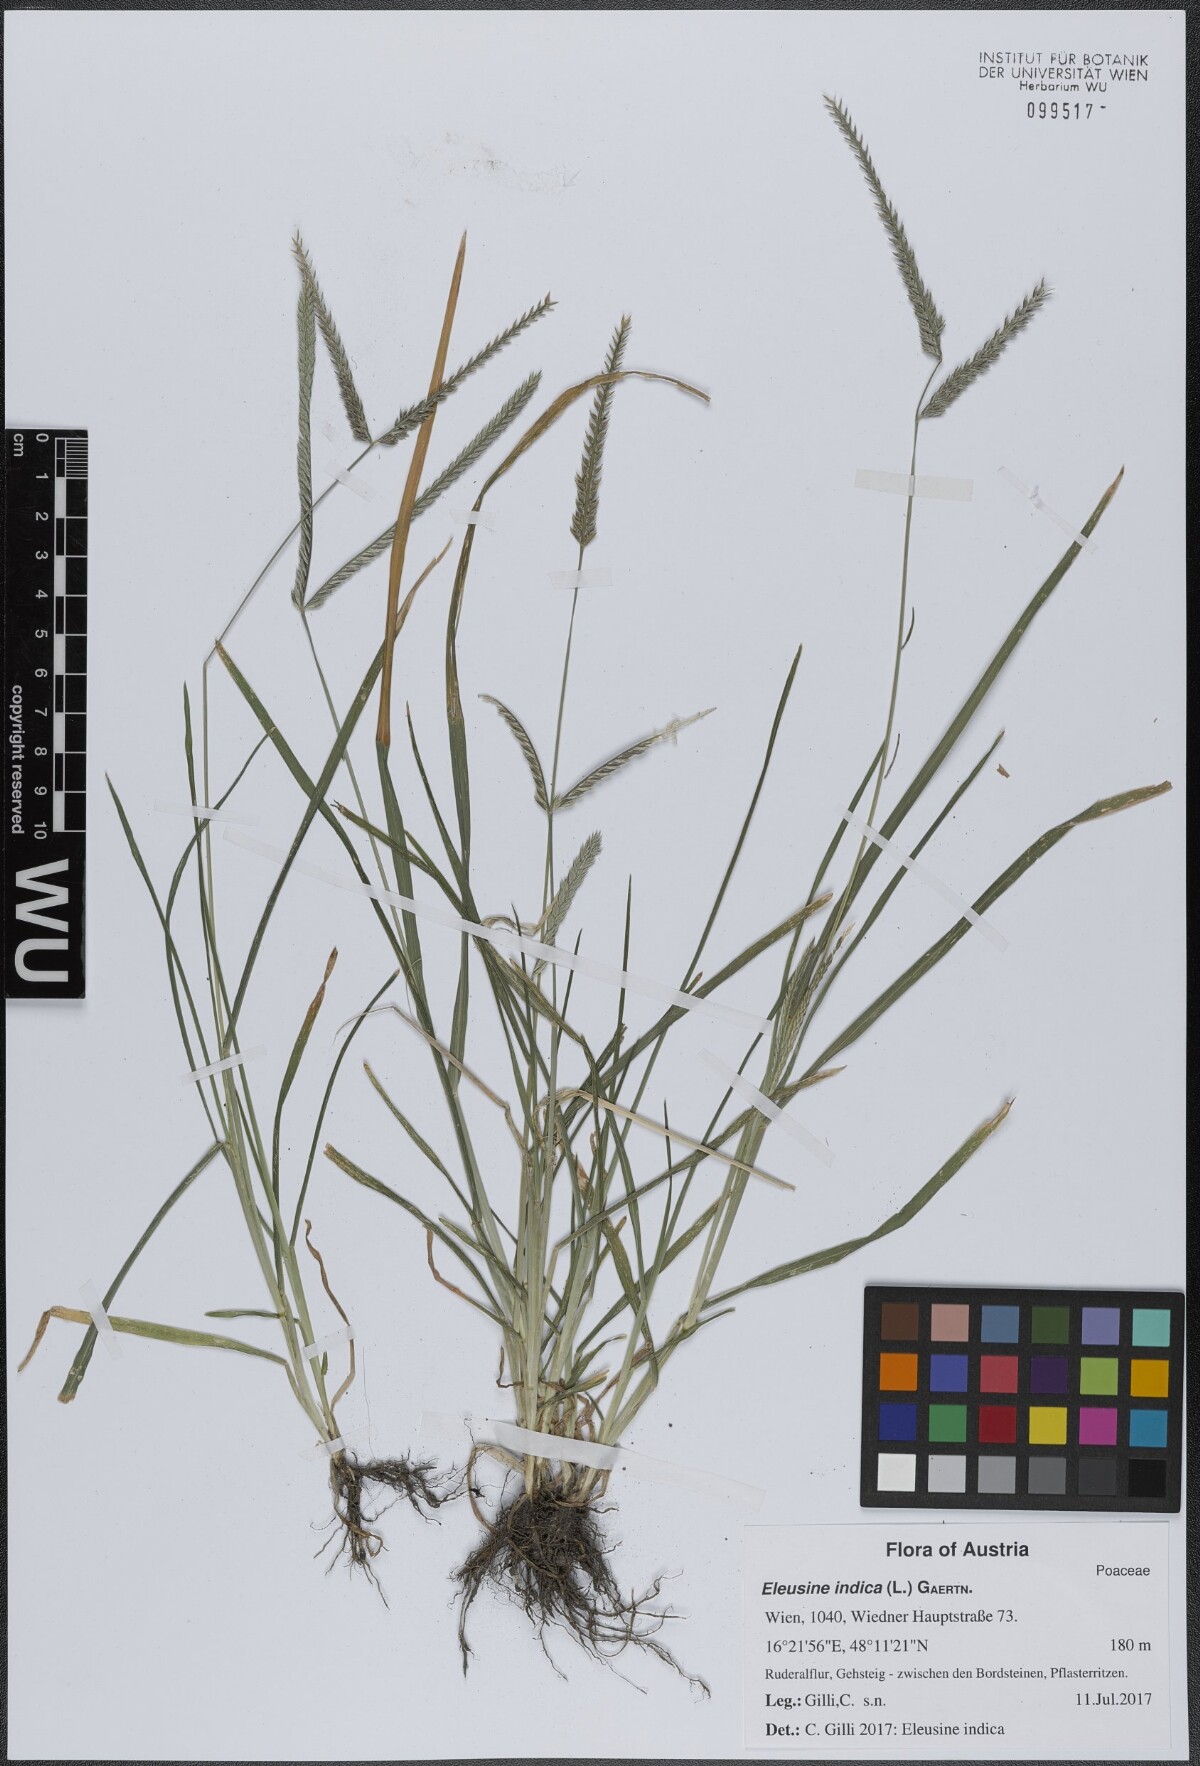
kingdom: Plantae
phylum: Tracheophyta
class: Liliopsida
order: Poales
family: Poaceae
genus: Eleusine
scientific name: Eleusine indica
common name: Yard-grass
